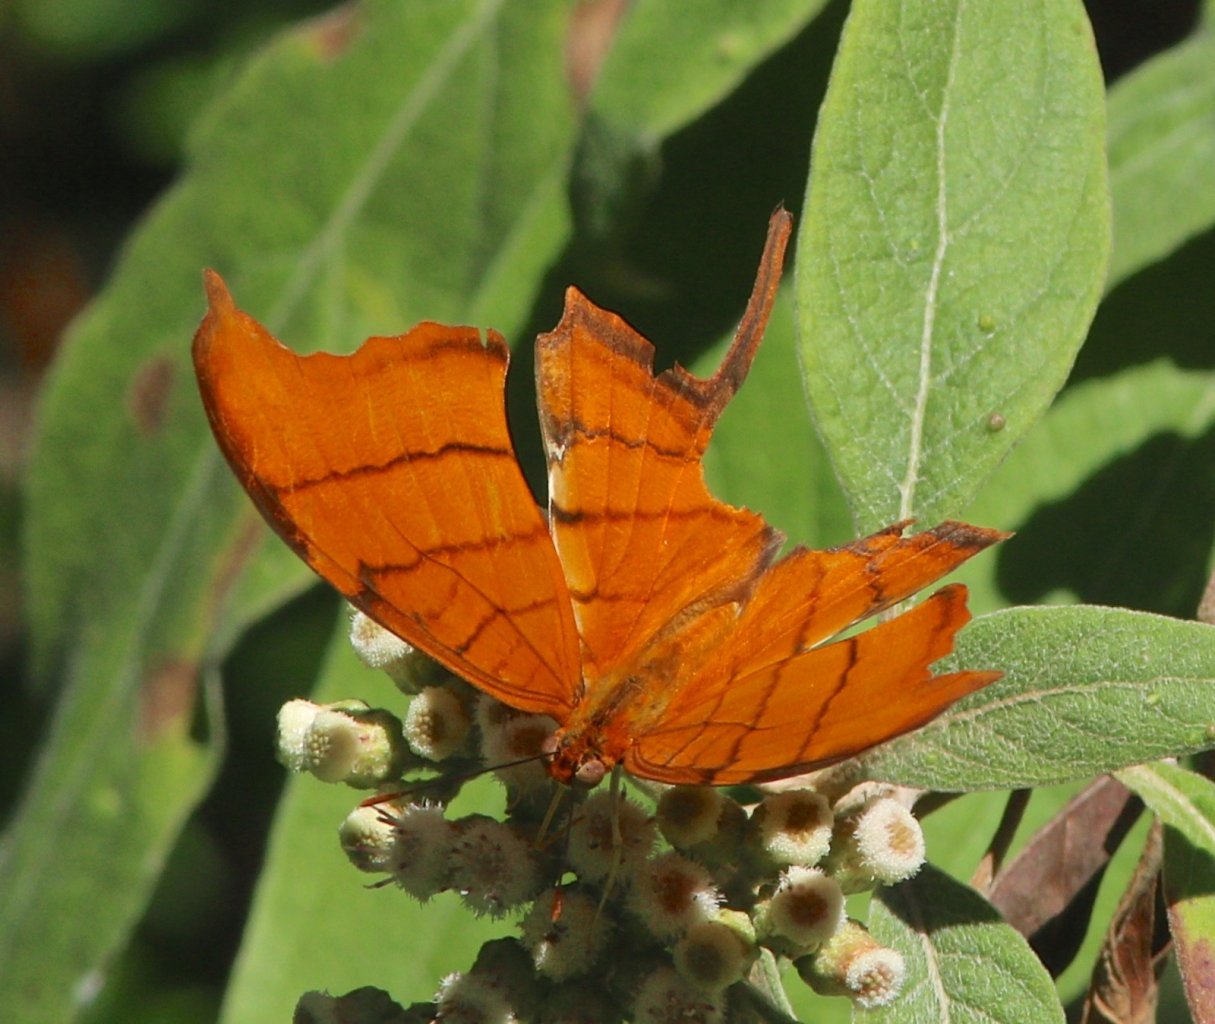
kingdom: Animalia
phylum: Arthropoda
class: Insecta
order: Lepidoptera
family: Nymphalidae
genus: Marpesia
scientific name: Marpesia petreus
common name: Ruddy Daggerwing
